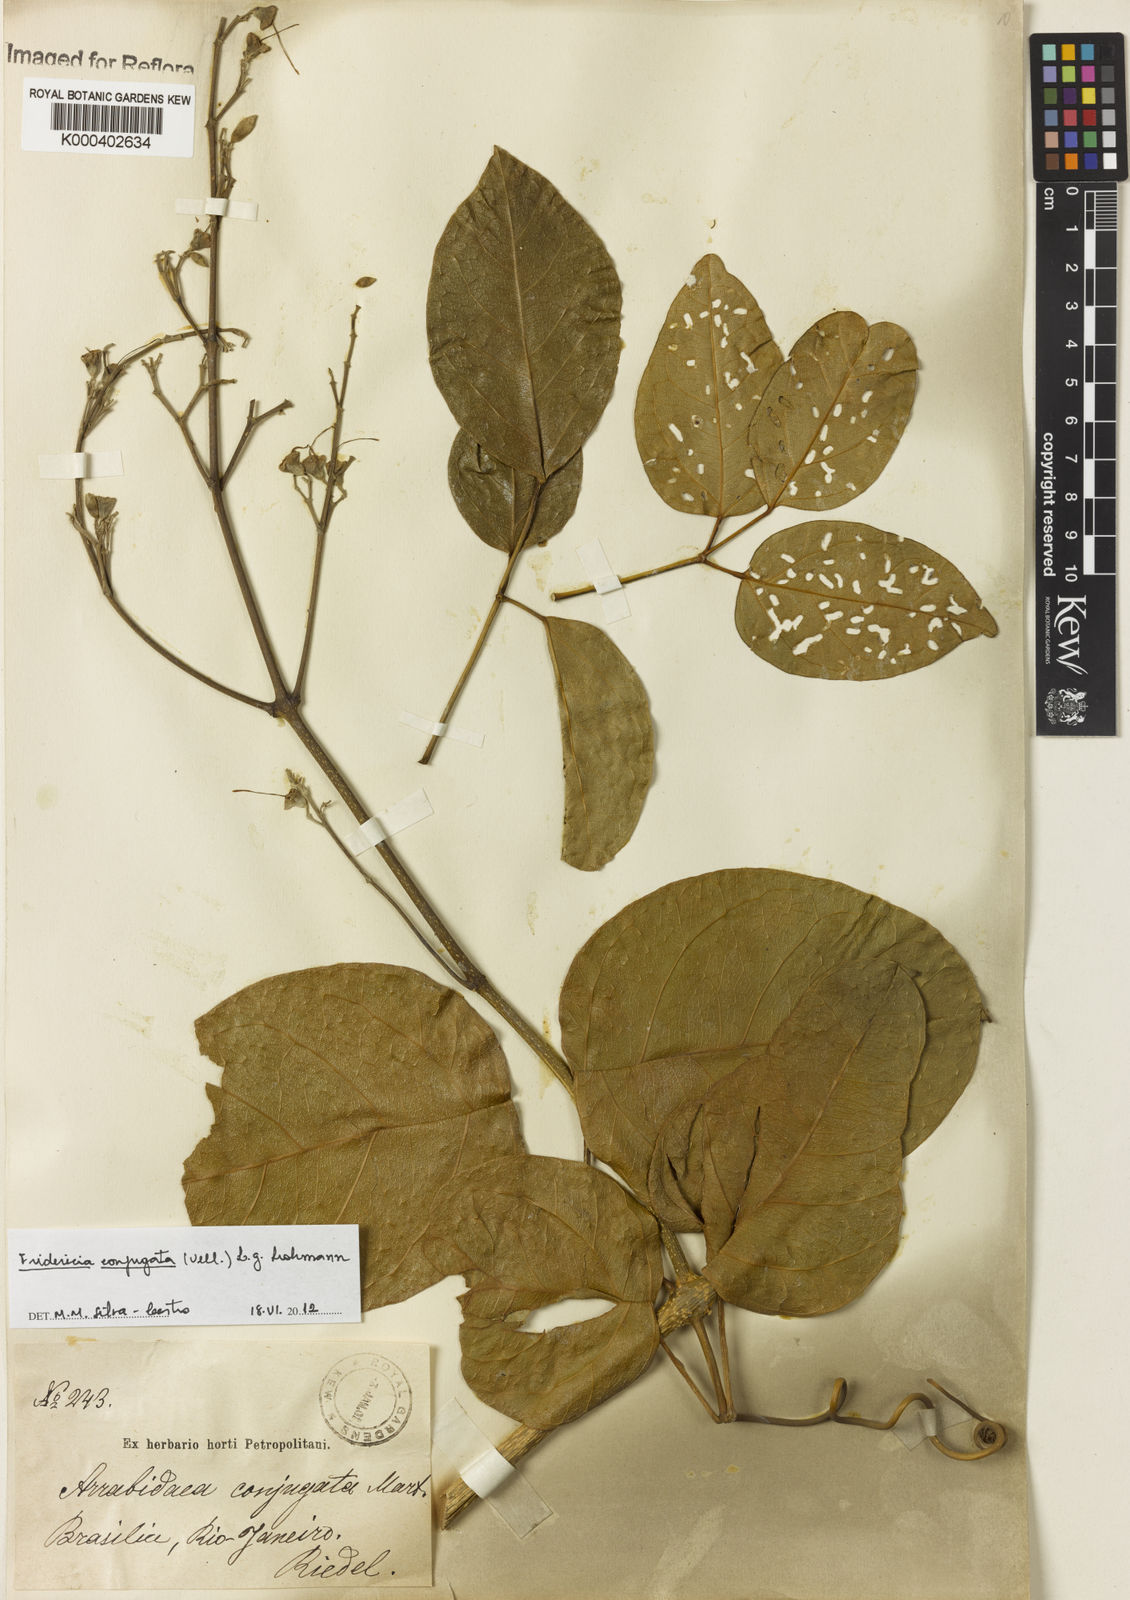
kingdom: Plantae
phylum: Tracheophyta
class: Magnoliopsida
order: Lamiales
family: Bignoniaceae
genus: Fridericia
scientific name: Fridericia conjugata
